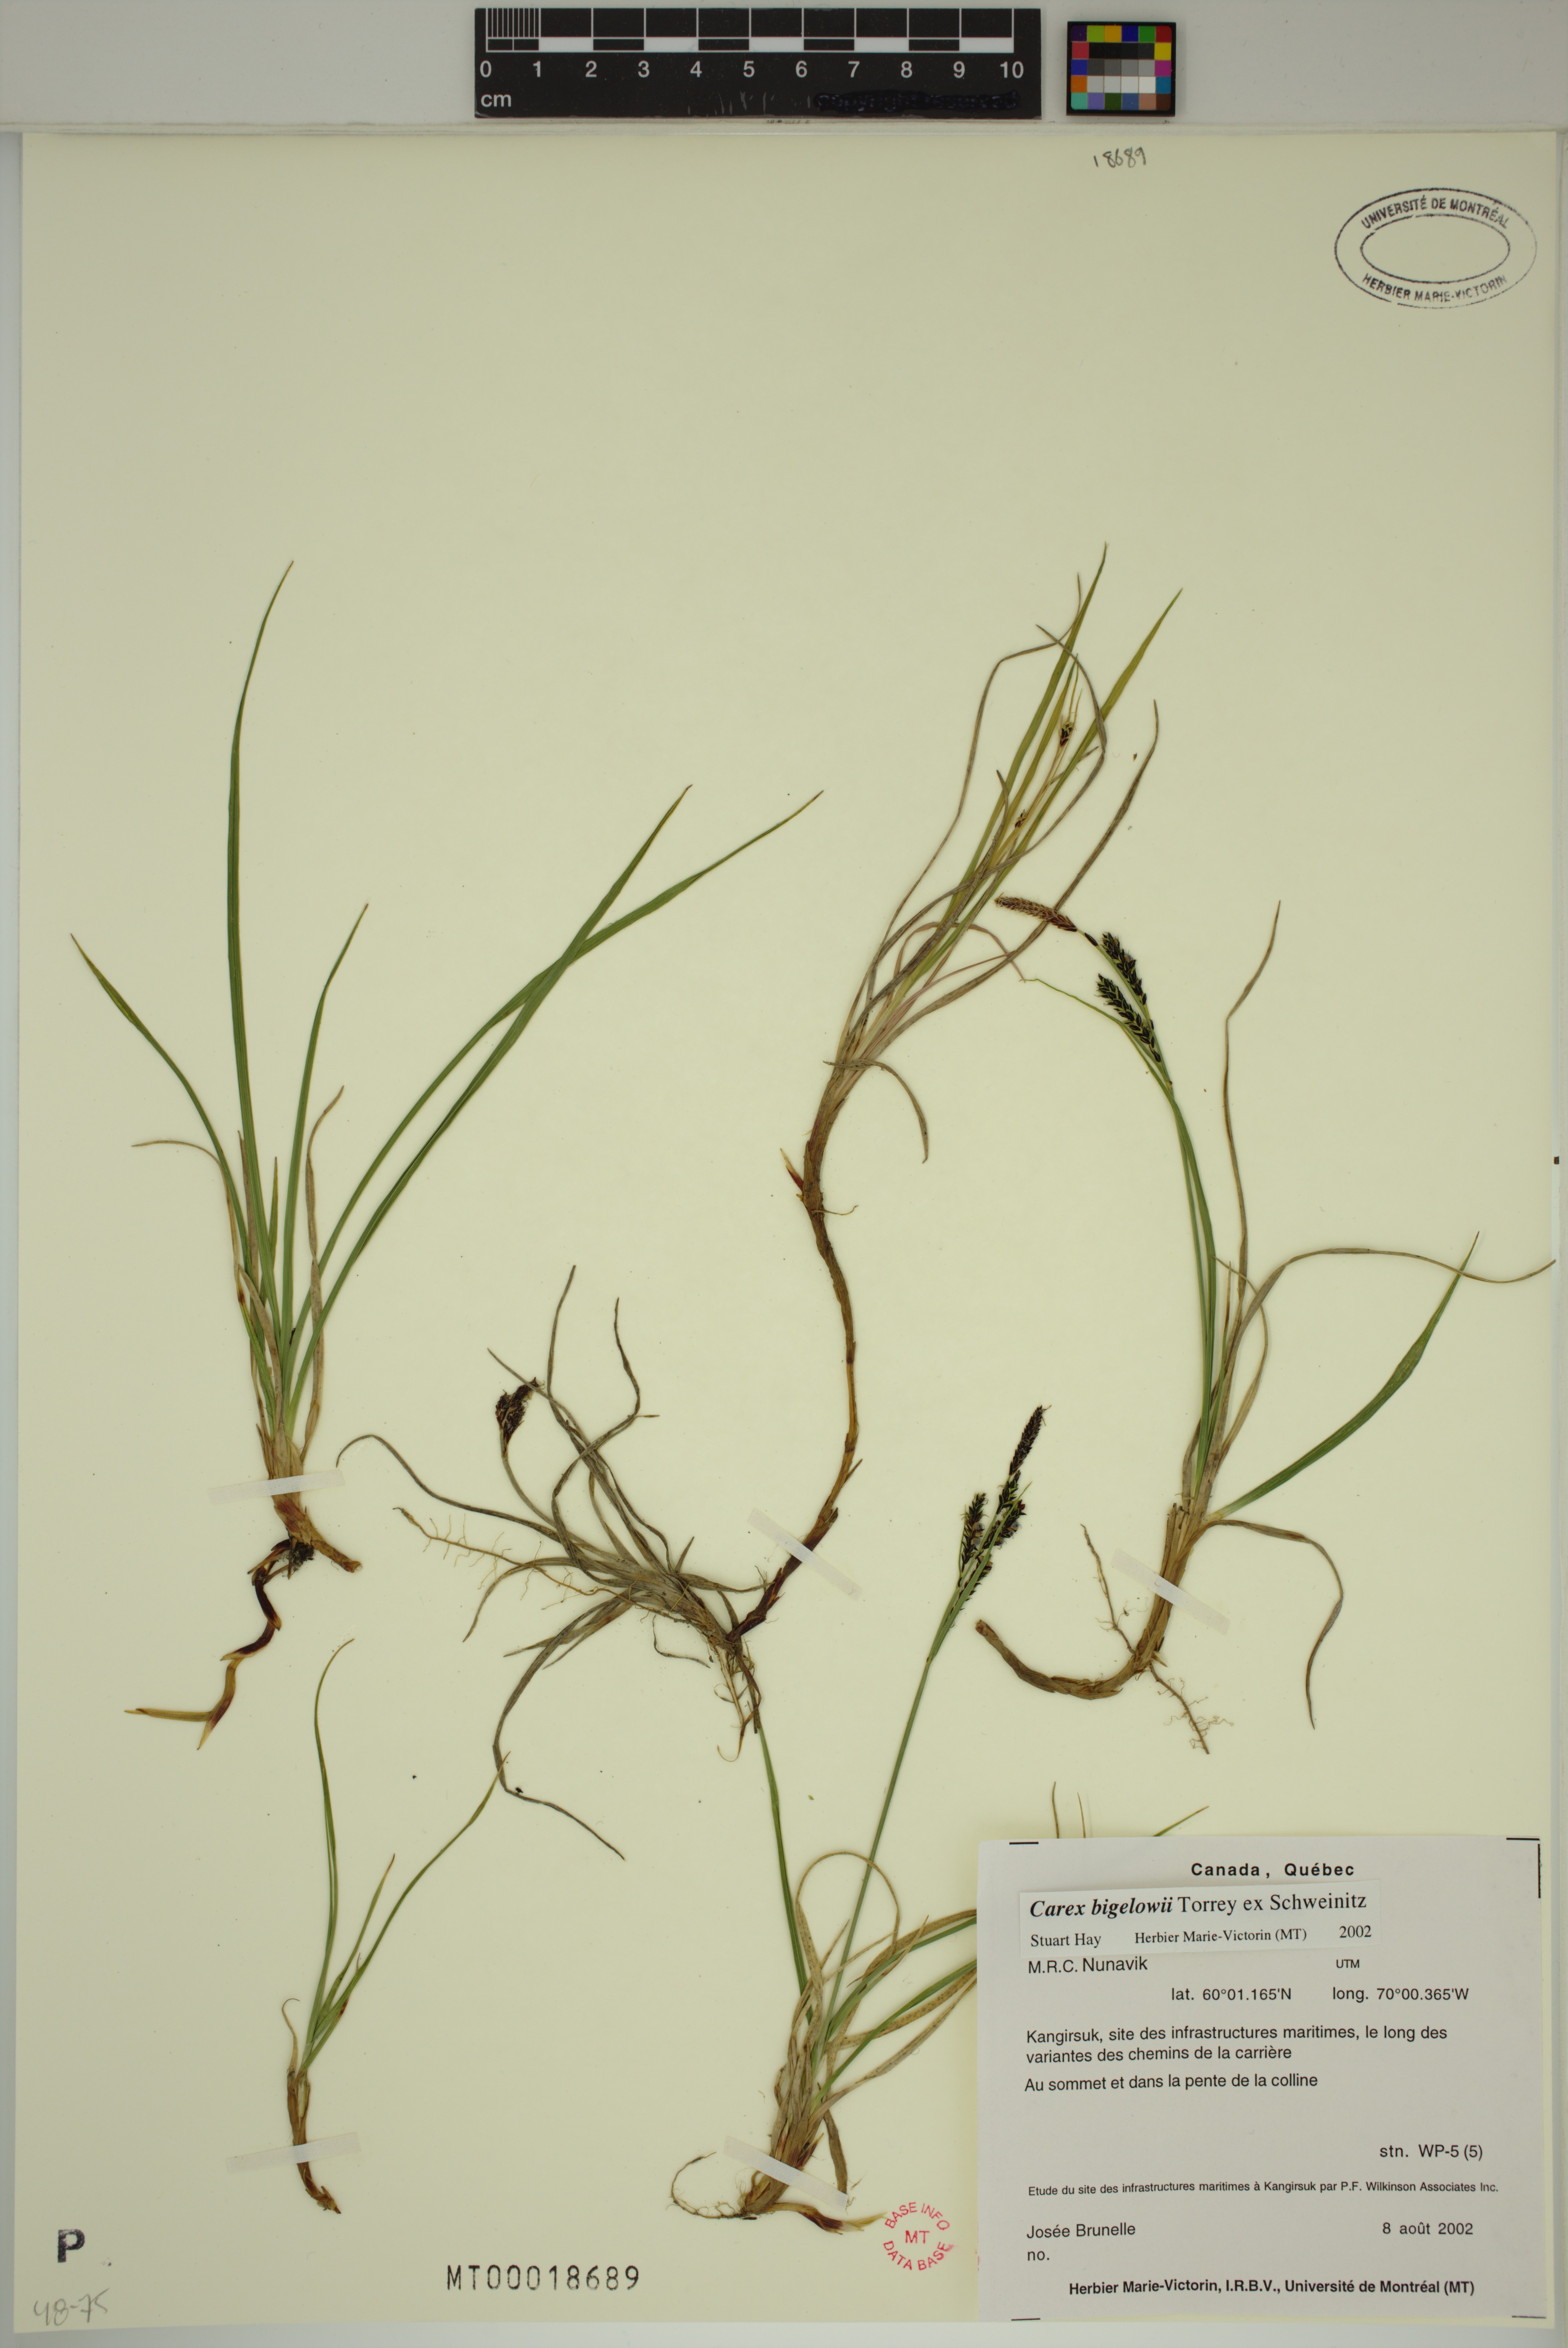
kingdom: Plantae
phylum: Tracheophyta
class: Liliopsida
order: Poales
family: Cyperaceae
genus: Carex
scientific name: Carex bigelowii
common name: Stiff sedge
